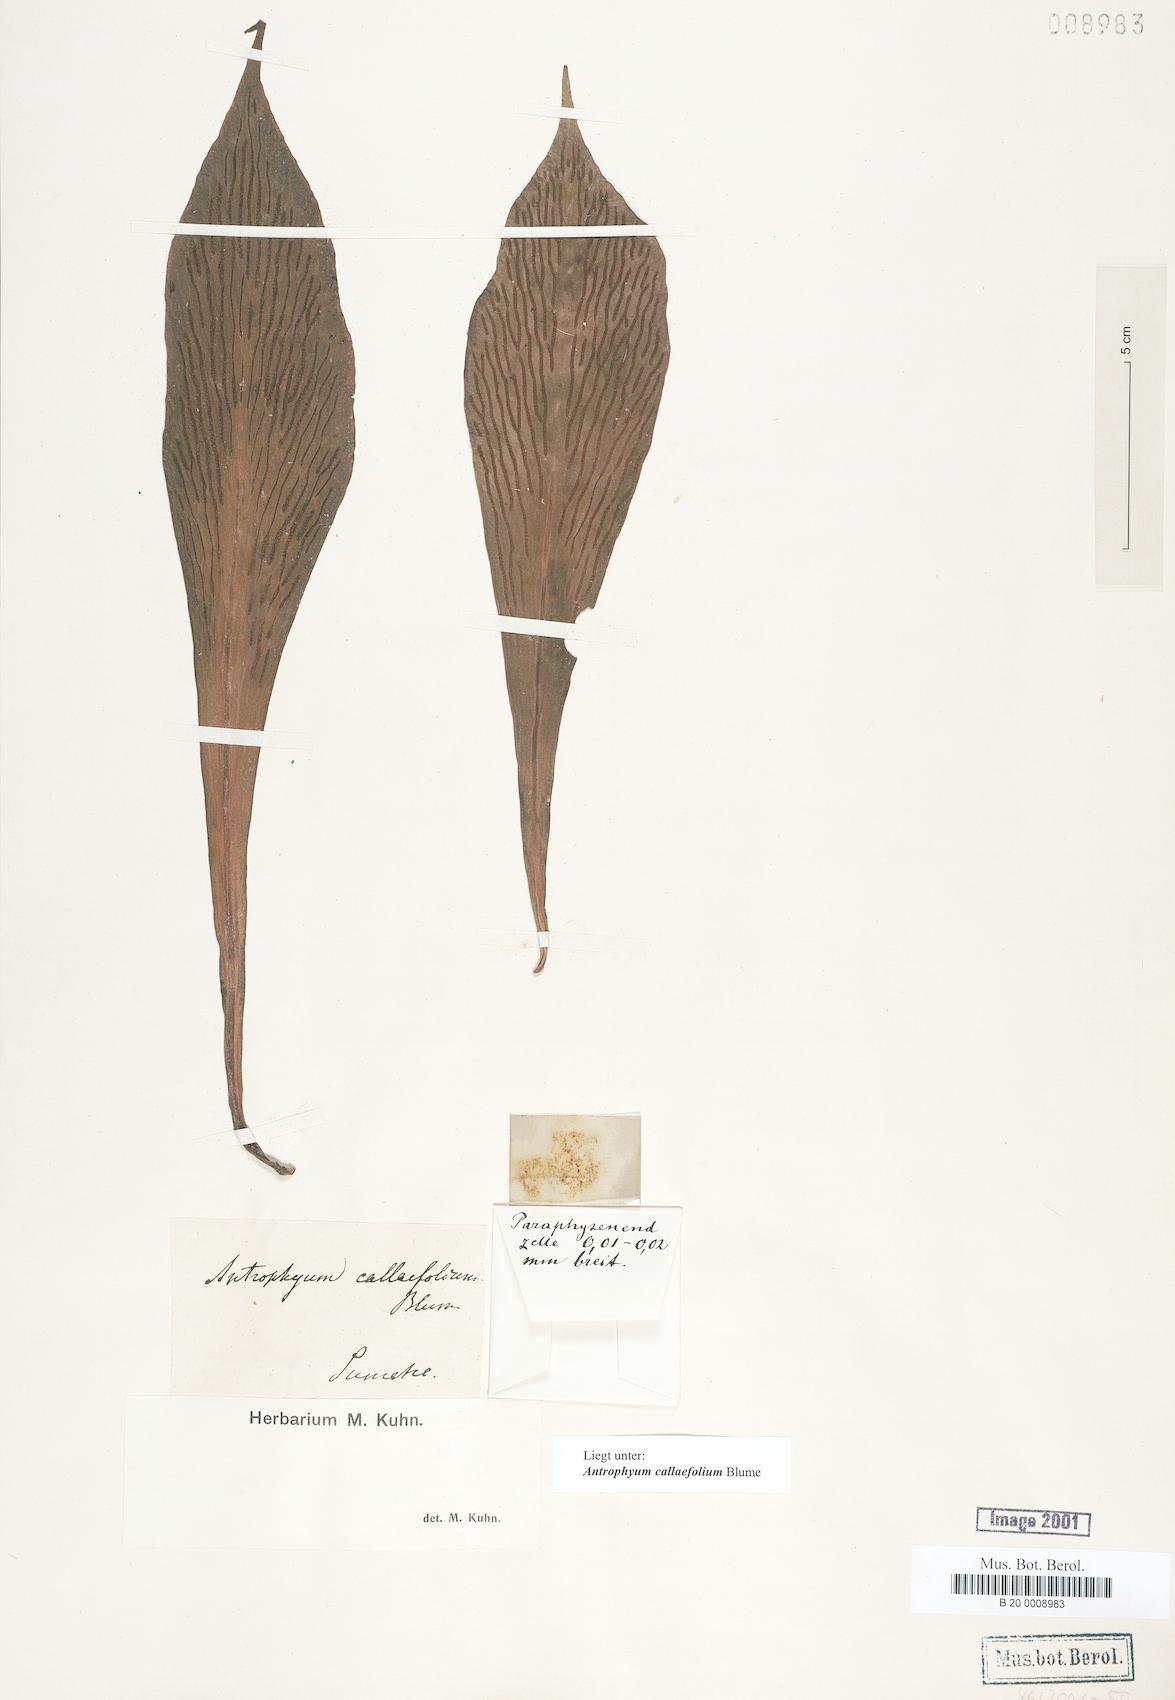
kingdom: Plantae
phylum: Tracheophyta
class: Polypodiopsida
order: Polypodiales
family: Pteridaceae
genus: Antrophyum
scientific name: Antrophyum callifolium
